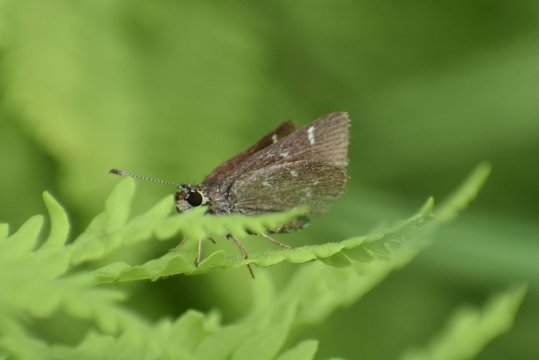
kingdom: Animalia
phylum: Arthropoda
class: Insecta
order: Lepidoptera
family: Hesperiidae
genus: Mastor
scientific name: Mastor hegon
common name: Pepper and Salt Skipper
